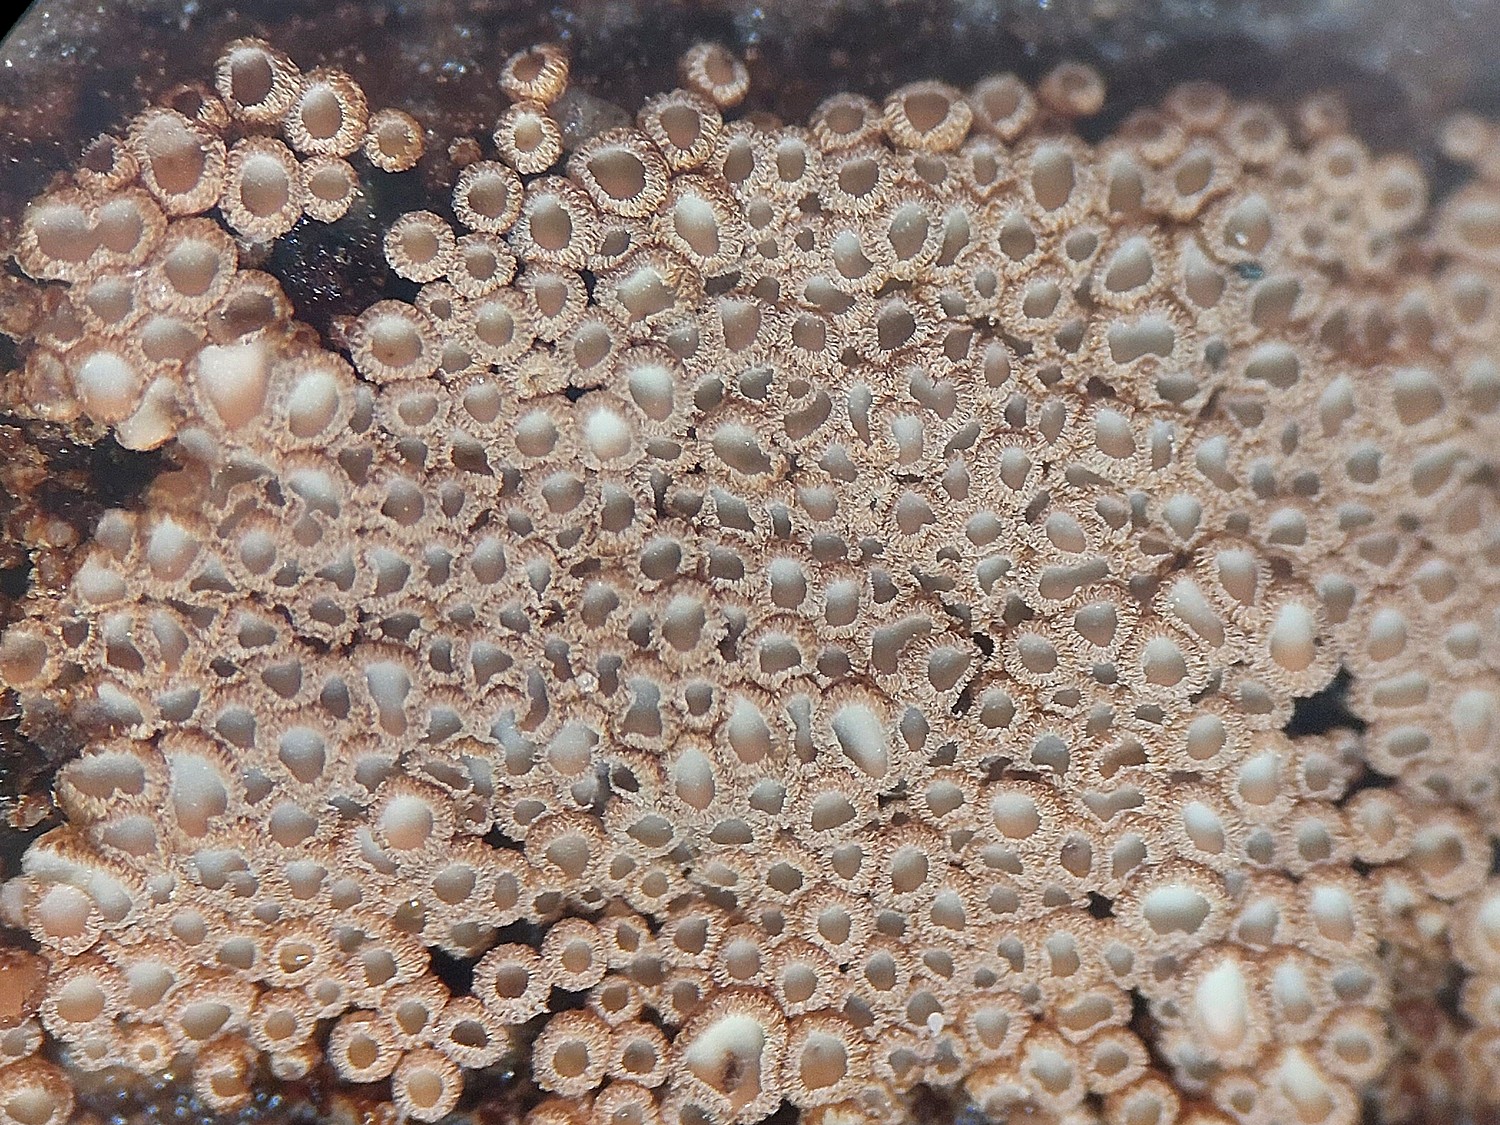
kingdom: Fungi
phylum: Basidiomycota
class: Agaricomycetes
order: Agaricales
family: Niaceae
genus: Merismodes
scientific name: Merismodes anomala
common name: almindelig læderskål
